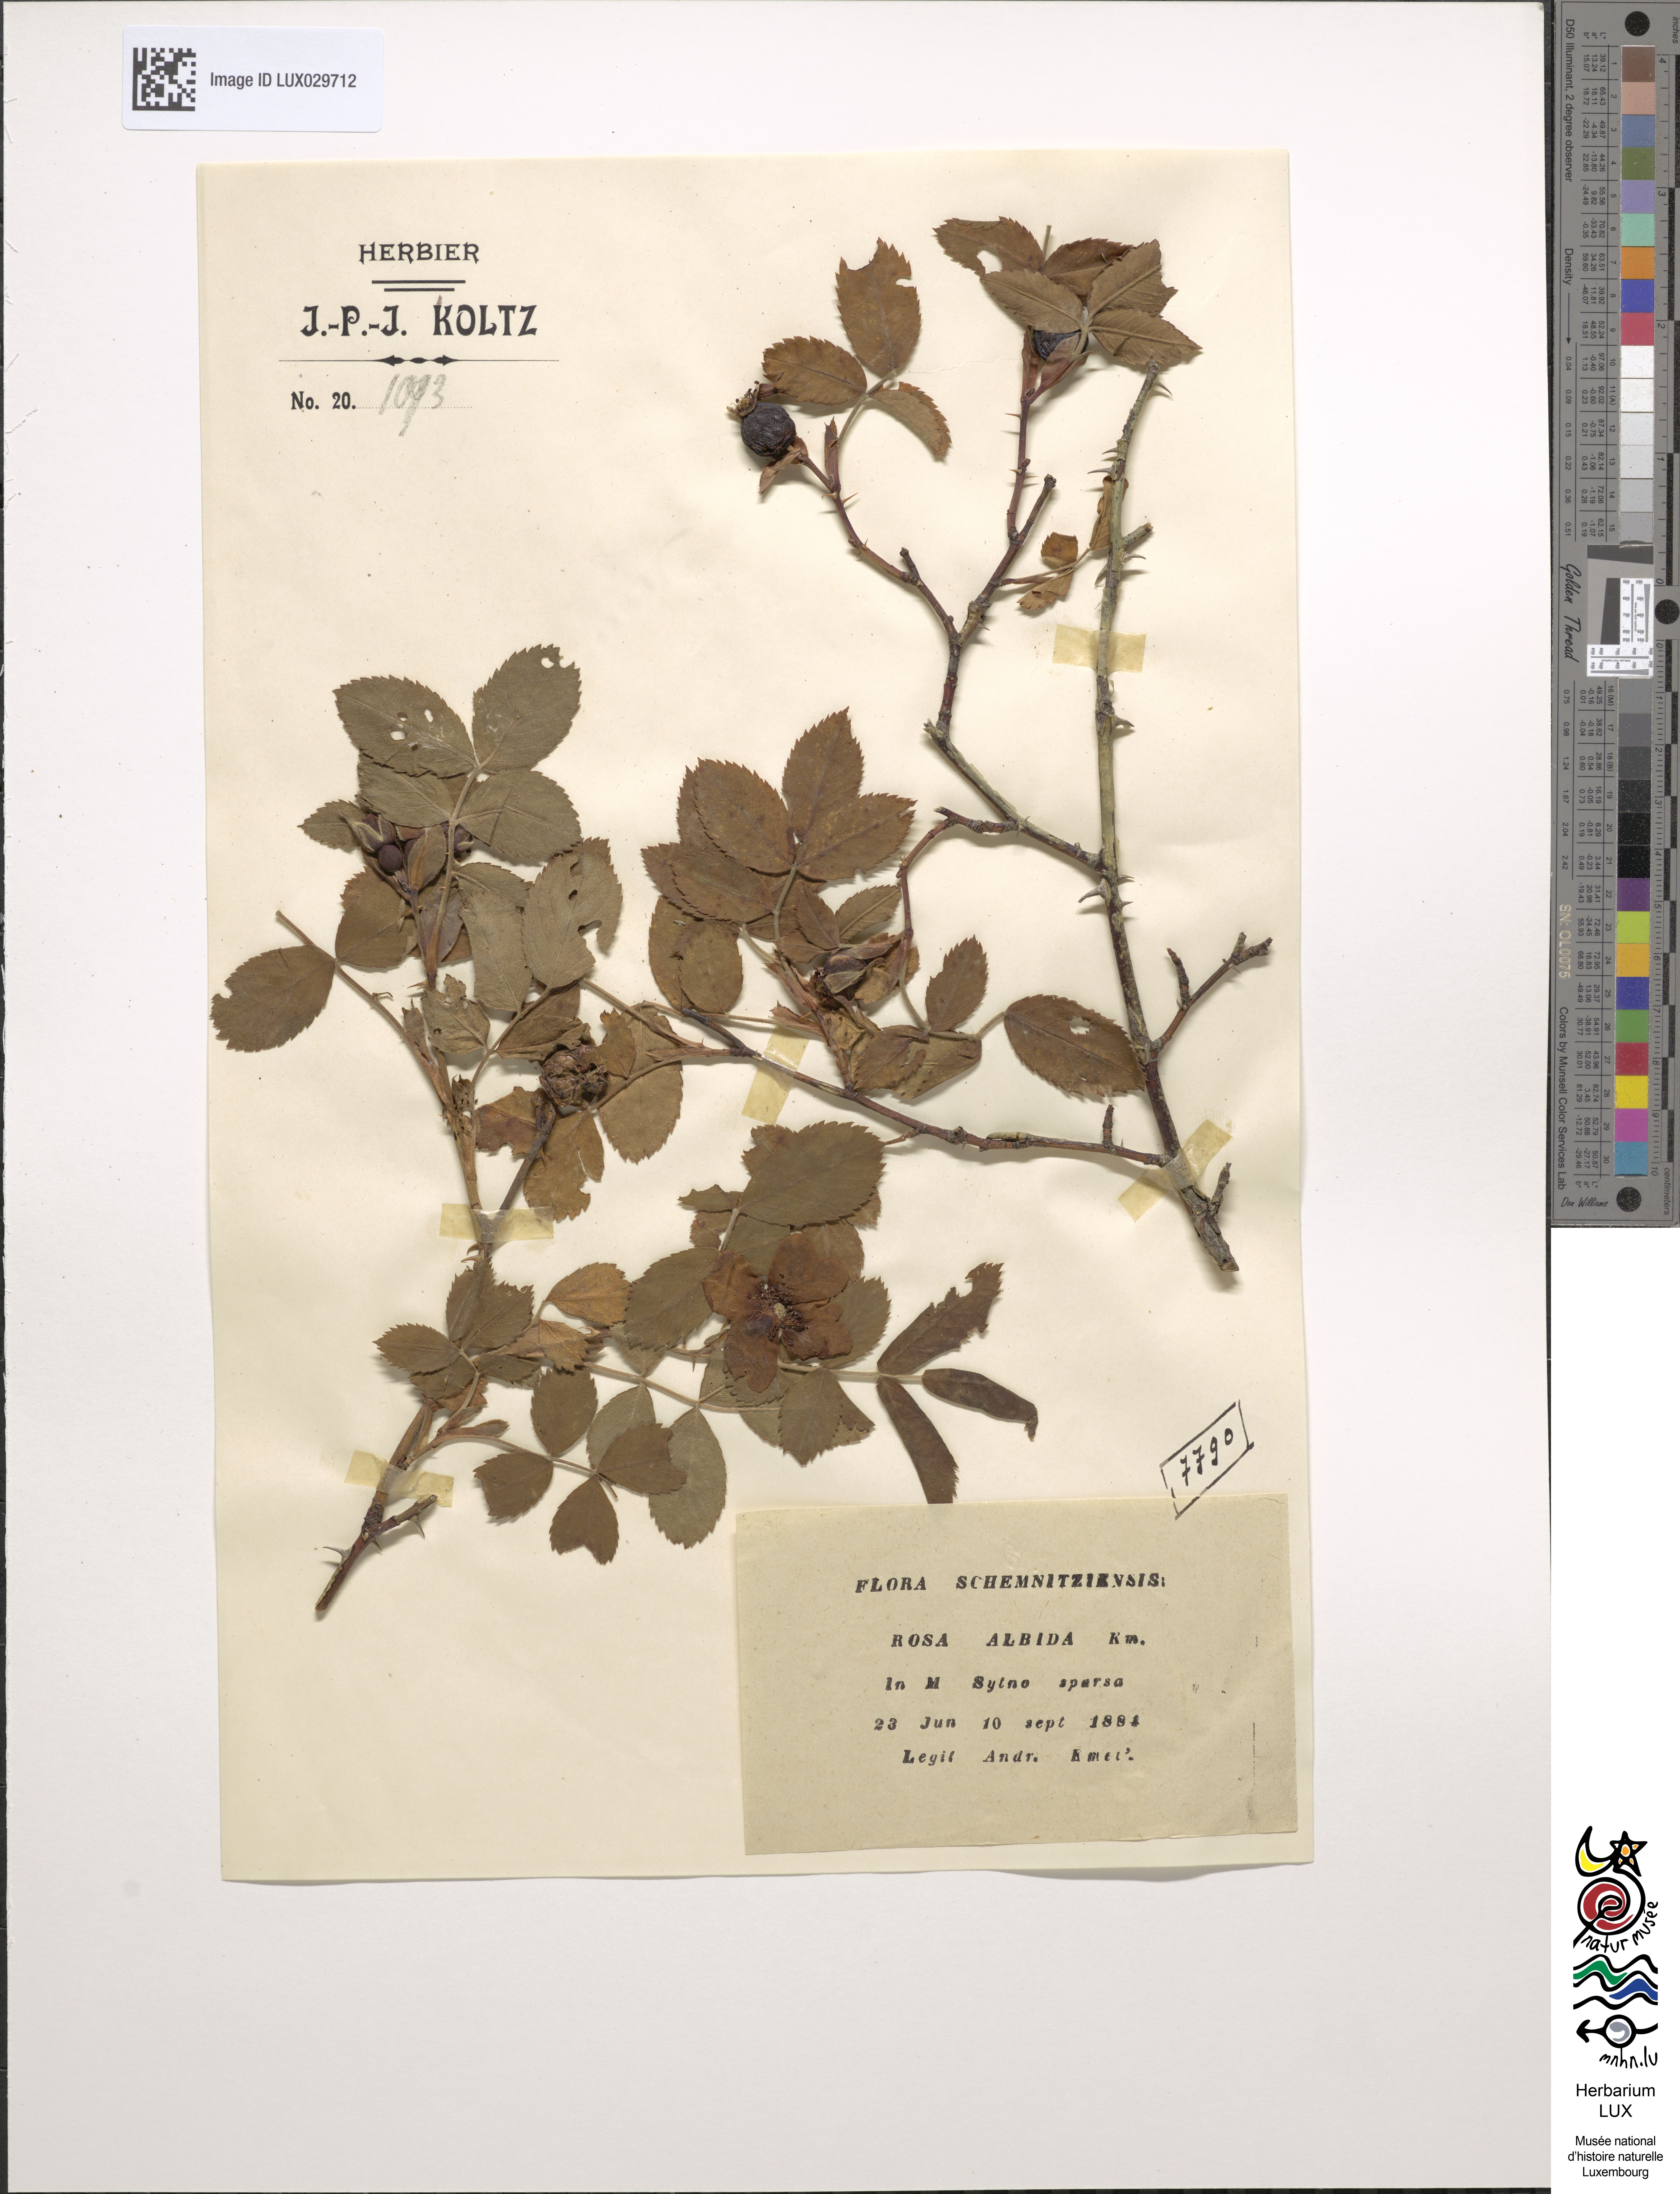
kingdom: Plantae
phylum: Tracheophyta
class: Magnoliopsida
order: Rosales
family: Rosaceae
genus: Rosa
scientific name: Rosa albida
